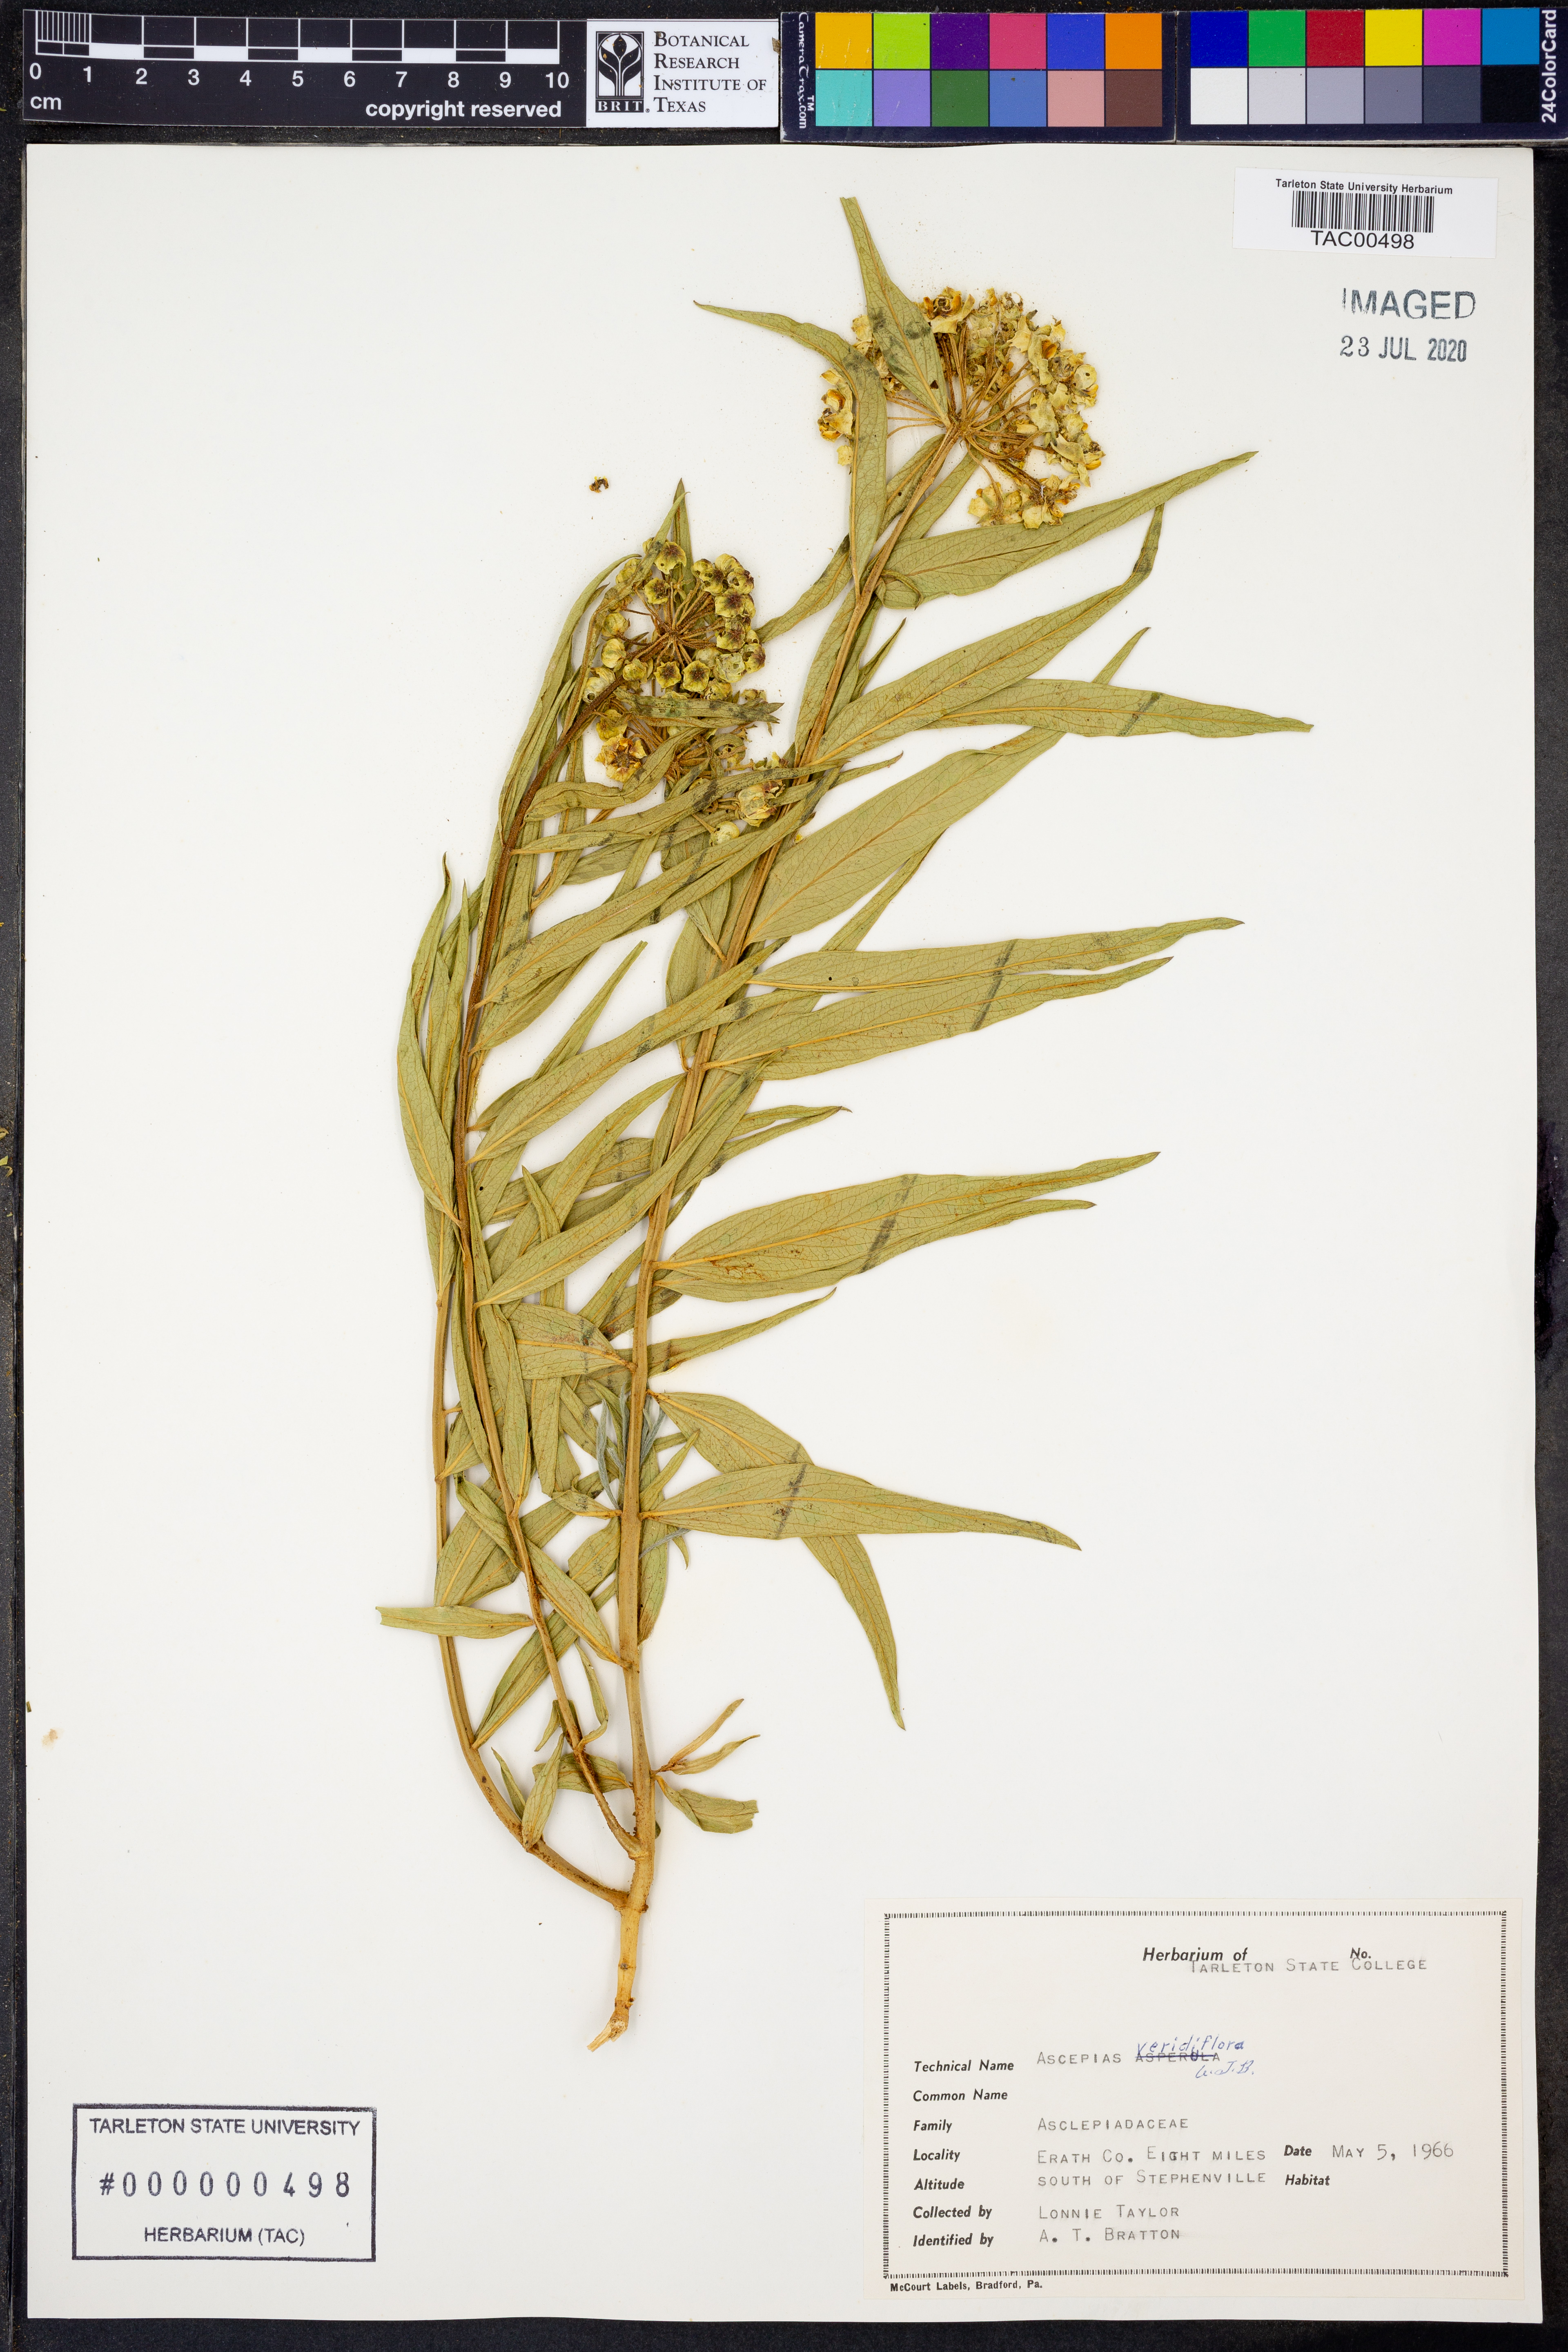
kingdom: Plantae
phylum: Tracheophyta
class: Magnoliopsida
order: Gentianales
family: Apocynaceae
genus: Asclepias
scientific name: Asclepias viridiflora
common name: Green comet milkweed
